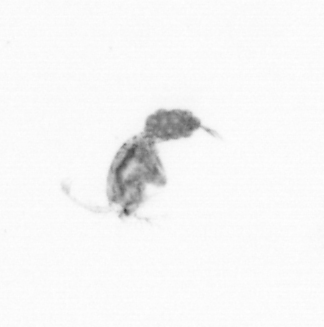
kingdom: Animalia
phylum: Arthropoda
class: Copepoda
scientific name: Copepoda
